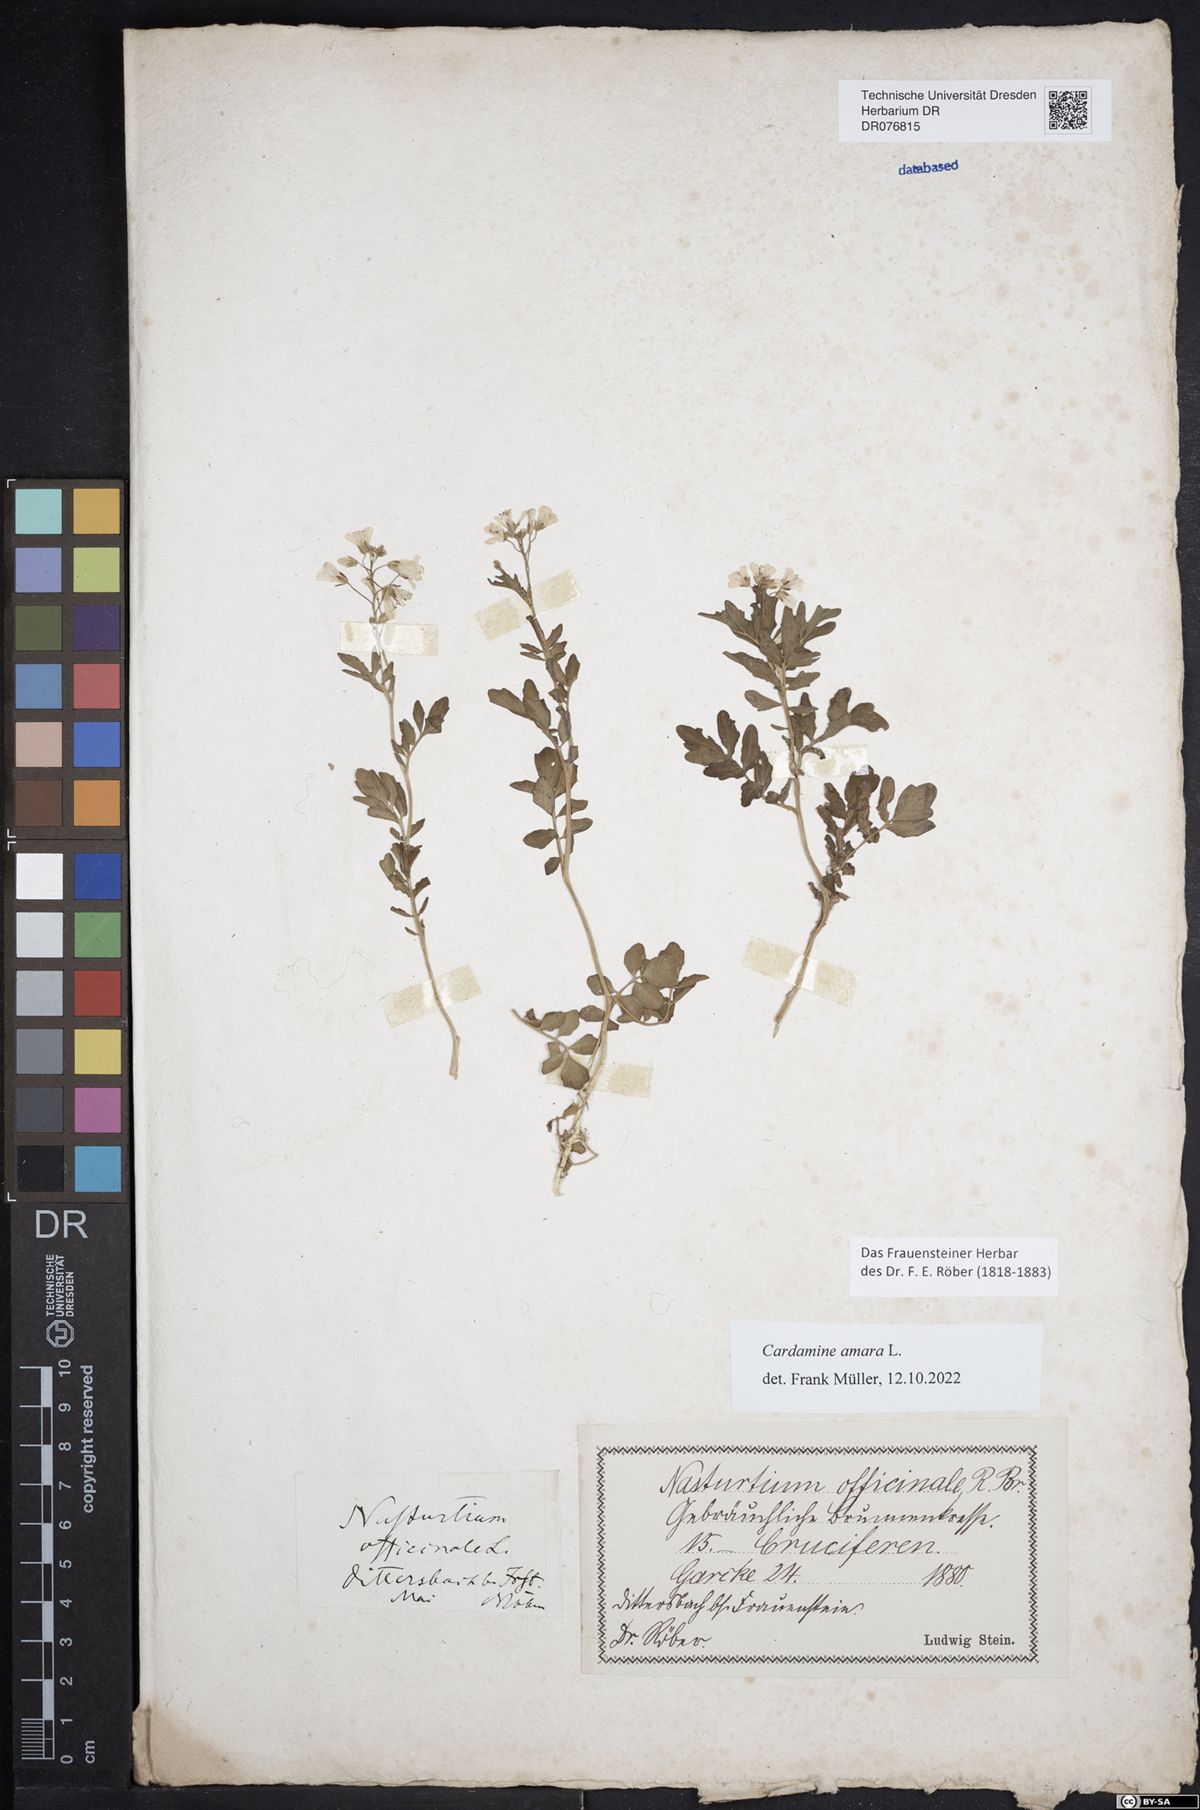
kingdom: Plantae
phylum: Tracheophyta
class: Magnoliopsida
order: Brassicales
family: Brassicaceae
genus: Cardamine
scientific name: Cardamine amara
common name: Large bitter-cress
